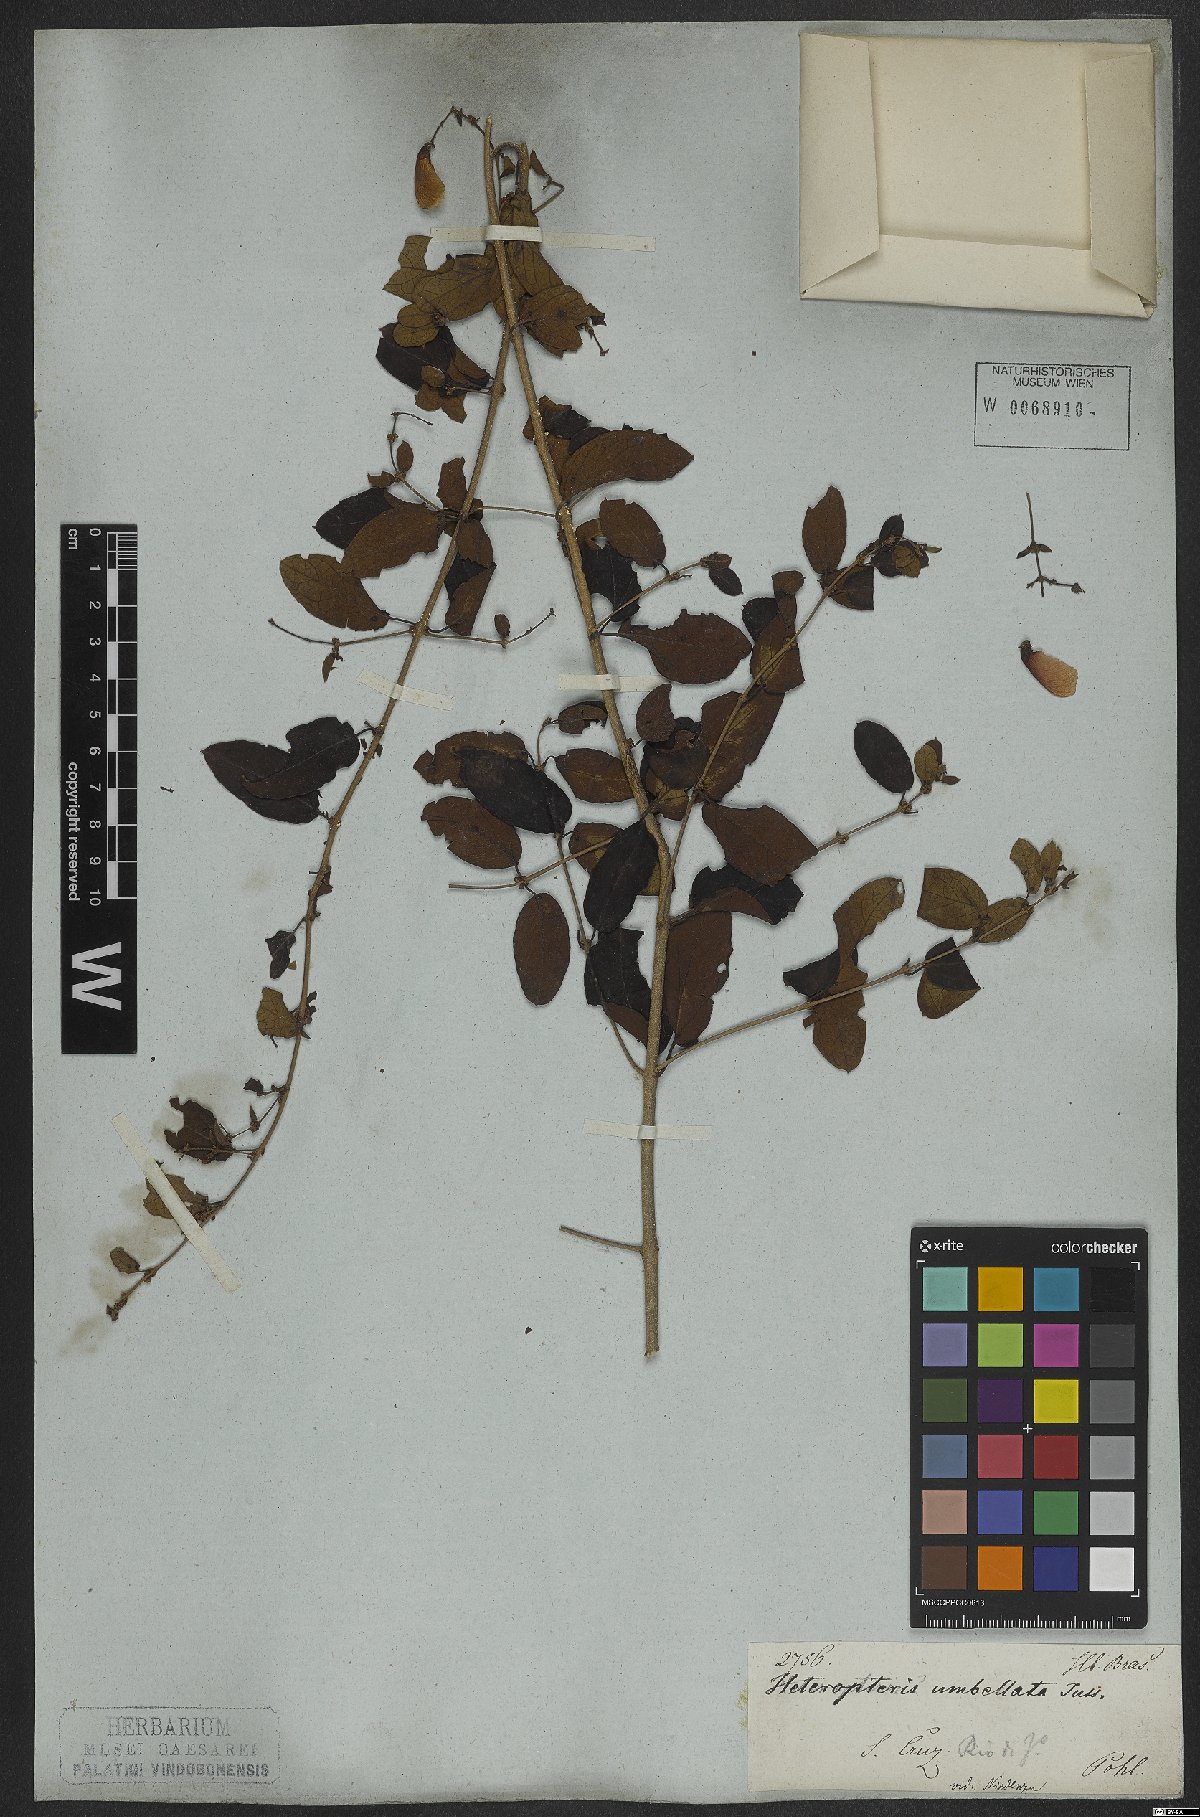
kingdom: Plantae
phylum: Tracheophyta
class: Magnoliopsida
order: Malpighiales
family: Malpighiaceae
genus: Heteropterys
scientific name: Heteropterys umbellata
